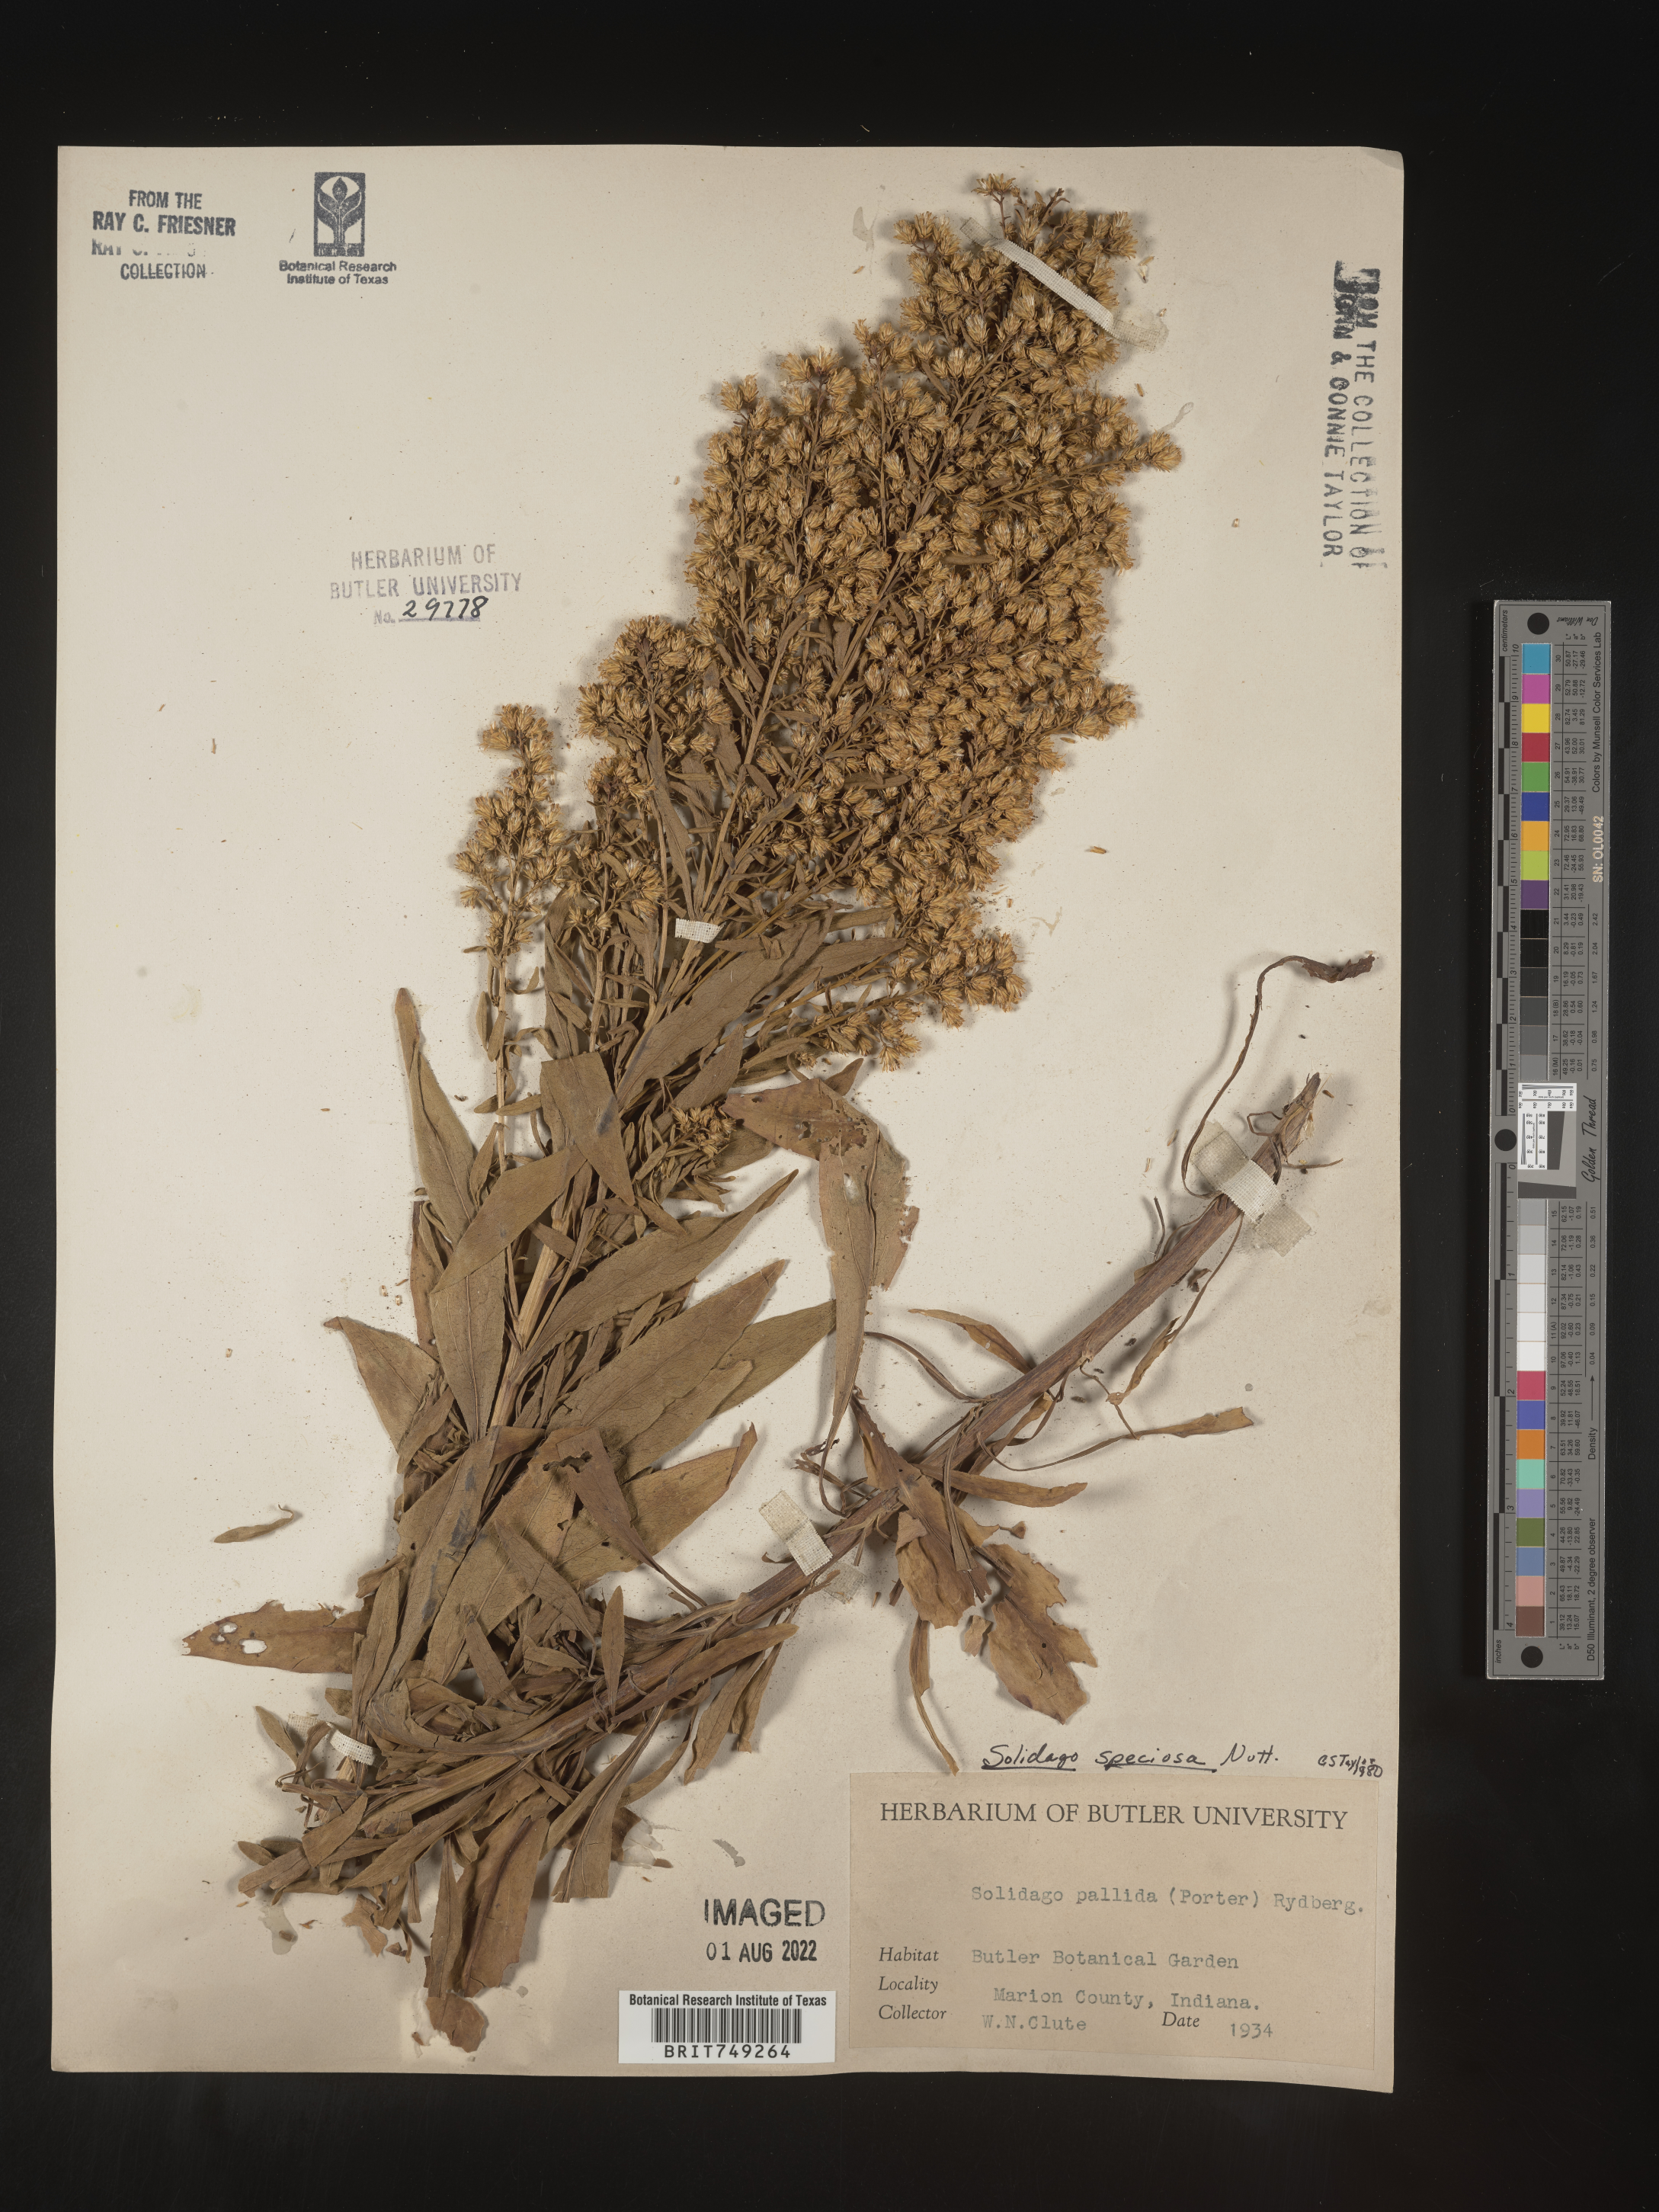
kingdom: Plantae
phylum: Tracheophyta
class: Magnoliopsida
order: Asterales
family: Asteraceae
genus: Solidago
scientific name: Solidago speciosa
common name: Showy goldenrod
